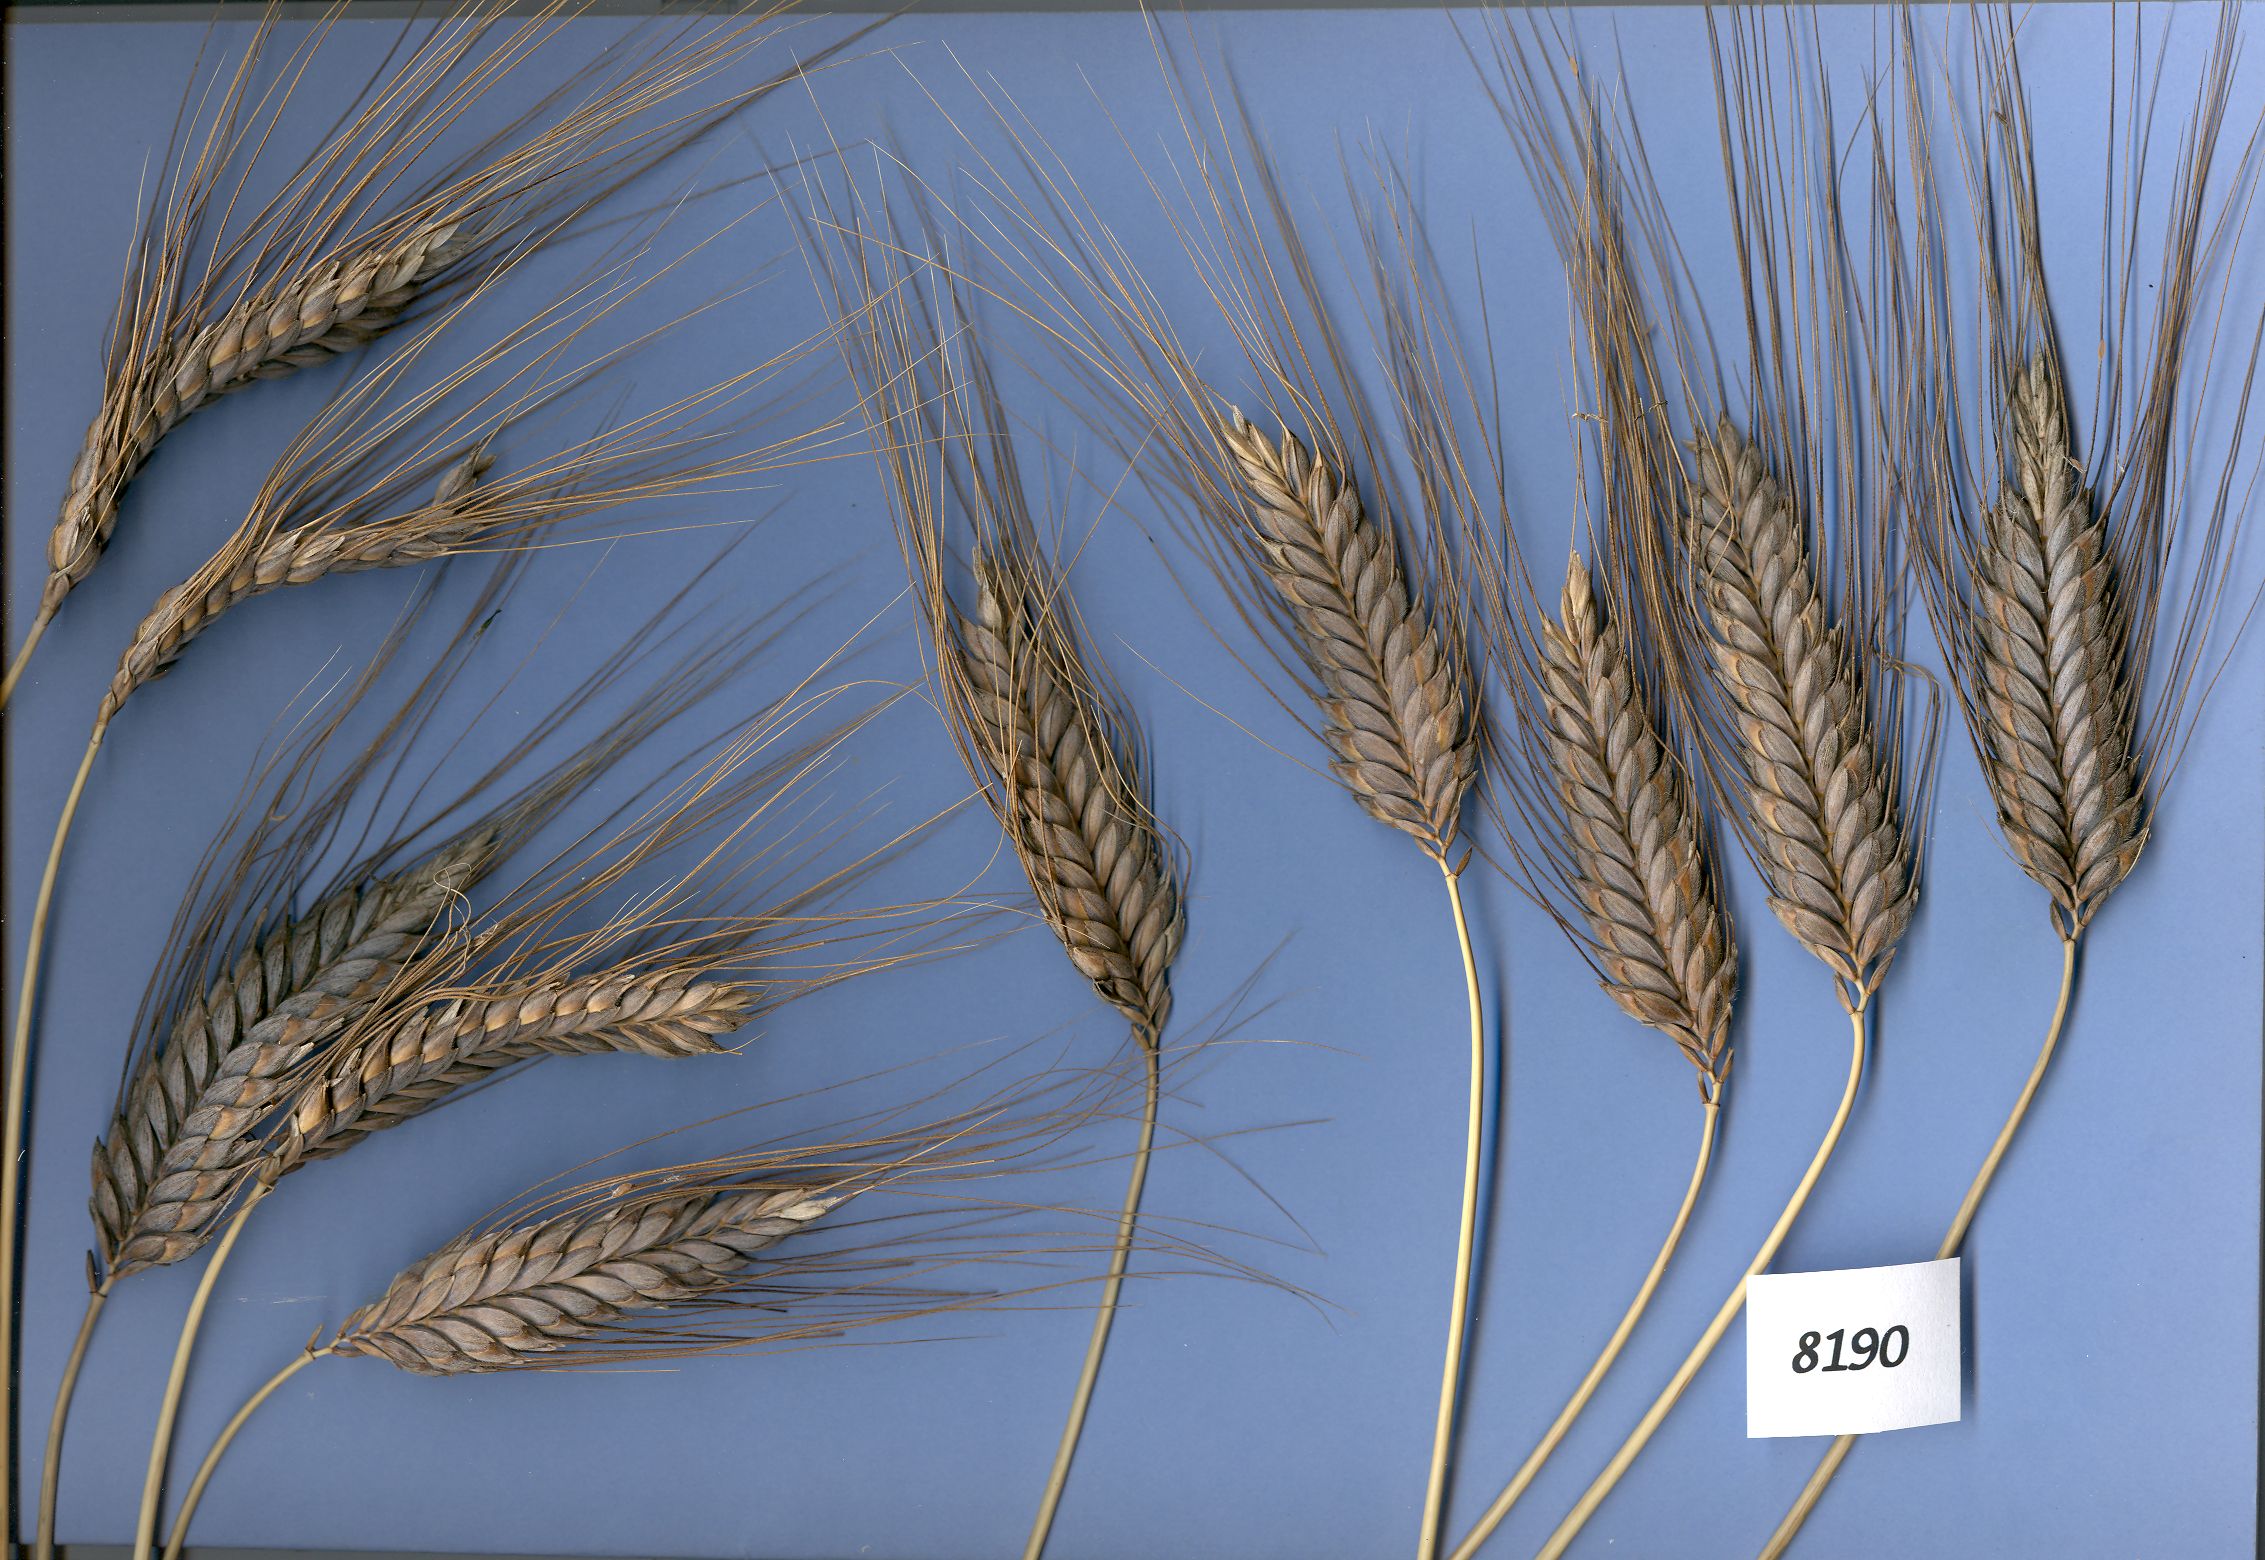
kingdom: Plantae
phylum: Tracheophyta
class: Liliopsida
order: Poales
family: Poaceae
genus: Triticum
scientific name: Triticum turgidum
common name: Rivet wheat
